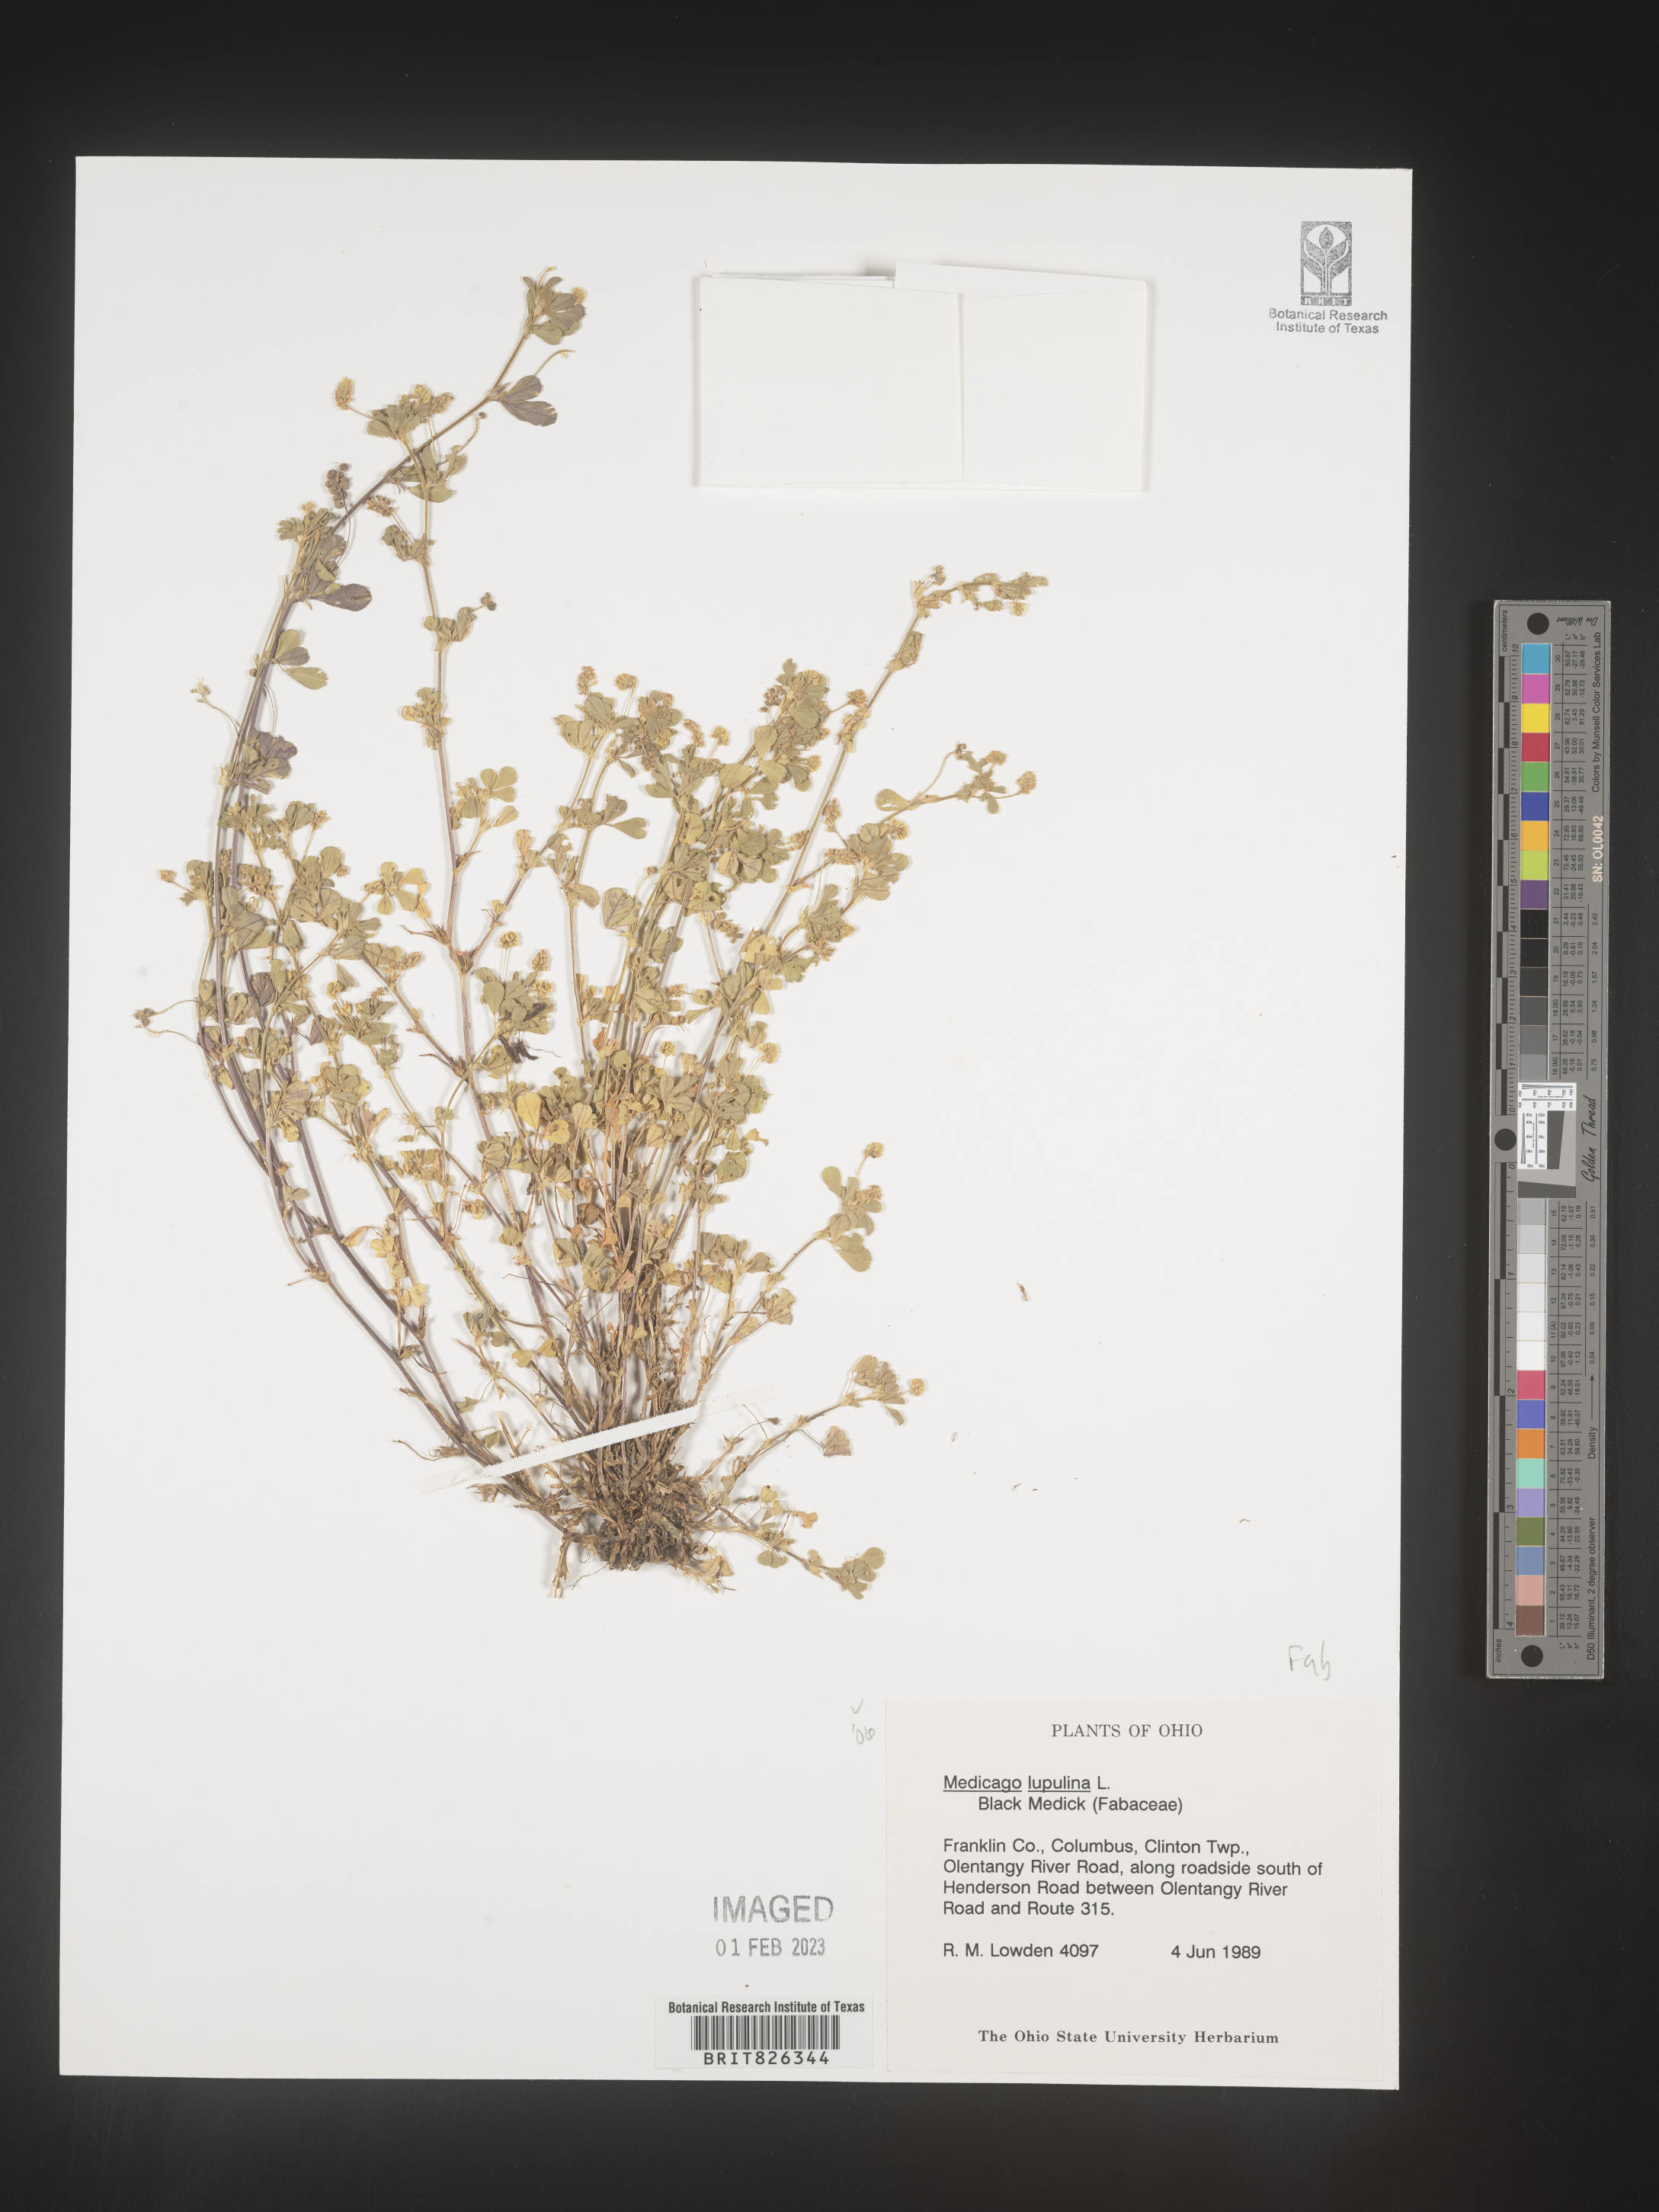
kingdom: Plantae
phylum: Tracheophyta
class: Magnoliopsida
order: Fabales
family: Fabaceae
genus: Medicago
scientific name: Medicago lupulina
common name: Black medick
